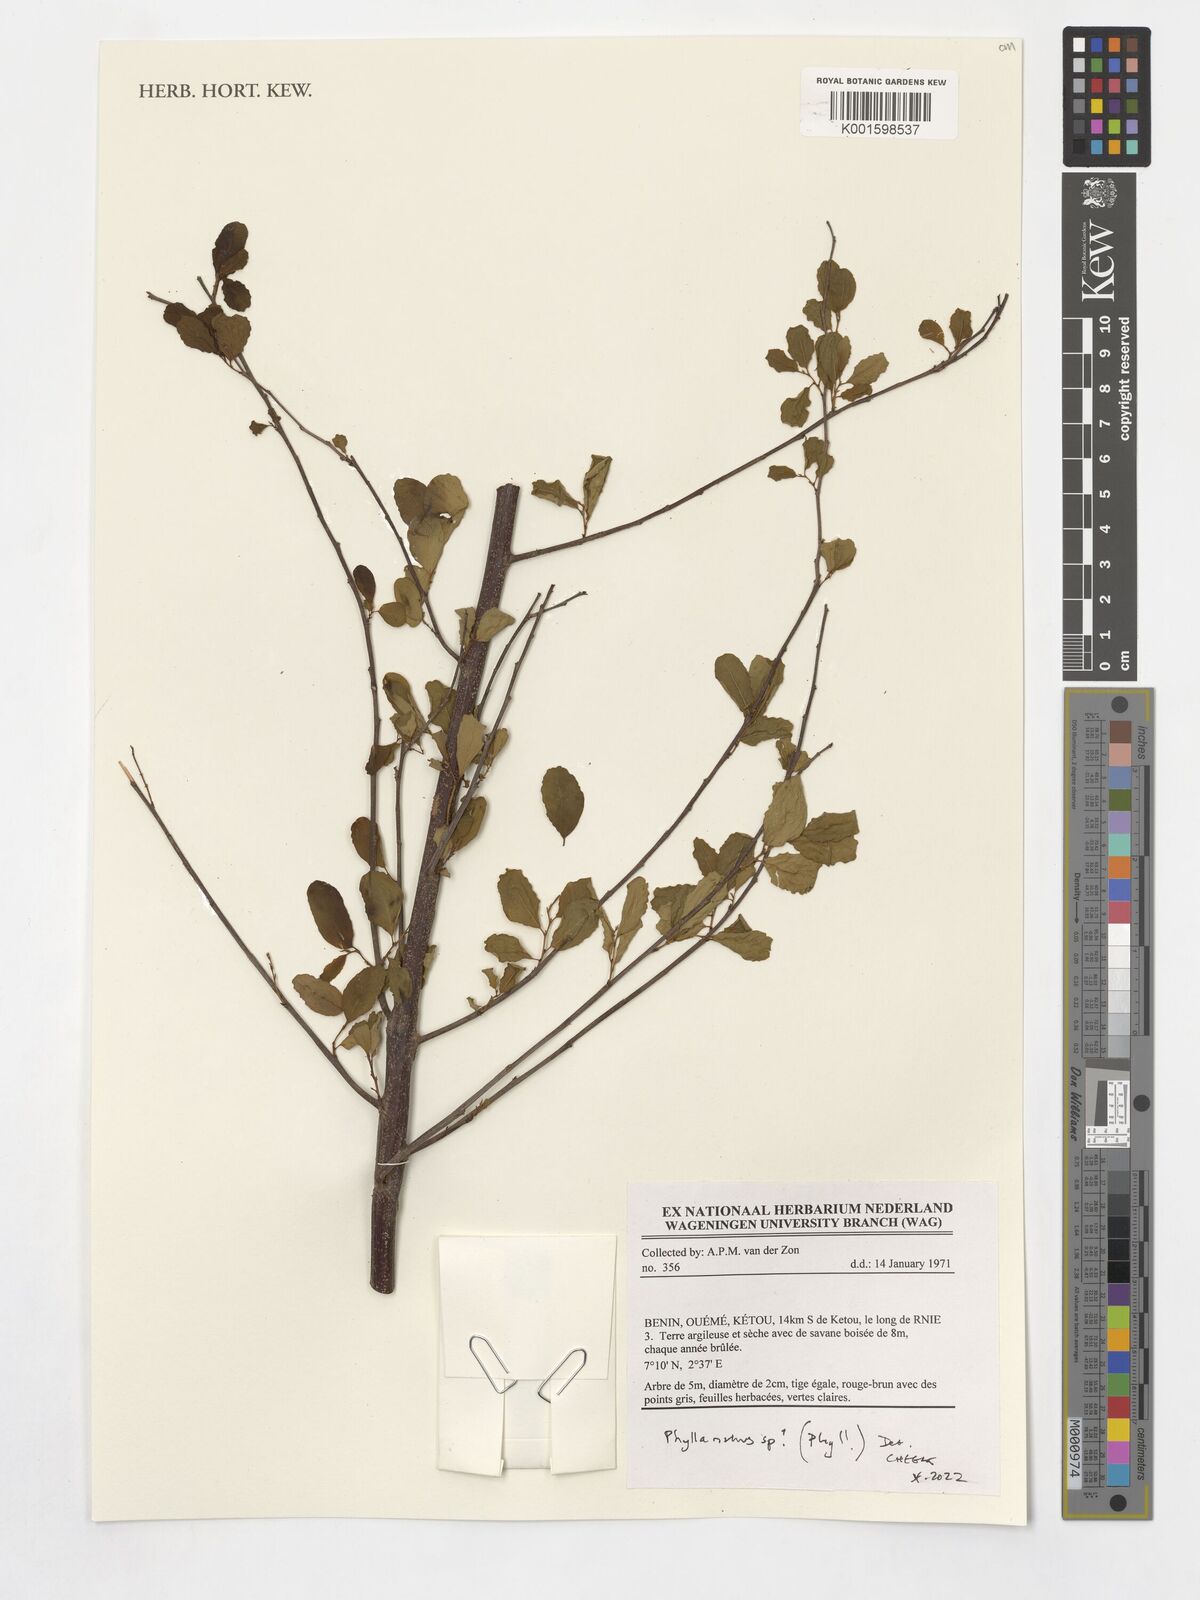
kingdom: Plantae
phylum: Tracheophyta
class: Magnoliopsida
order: Malpighiales
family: Phyllanthaceae
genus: Phyllanthus
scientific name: Phyllanthus
